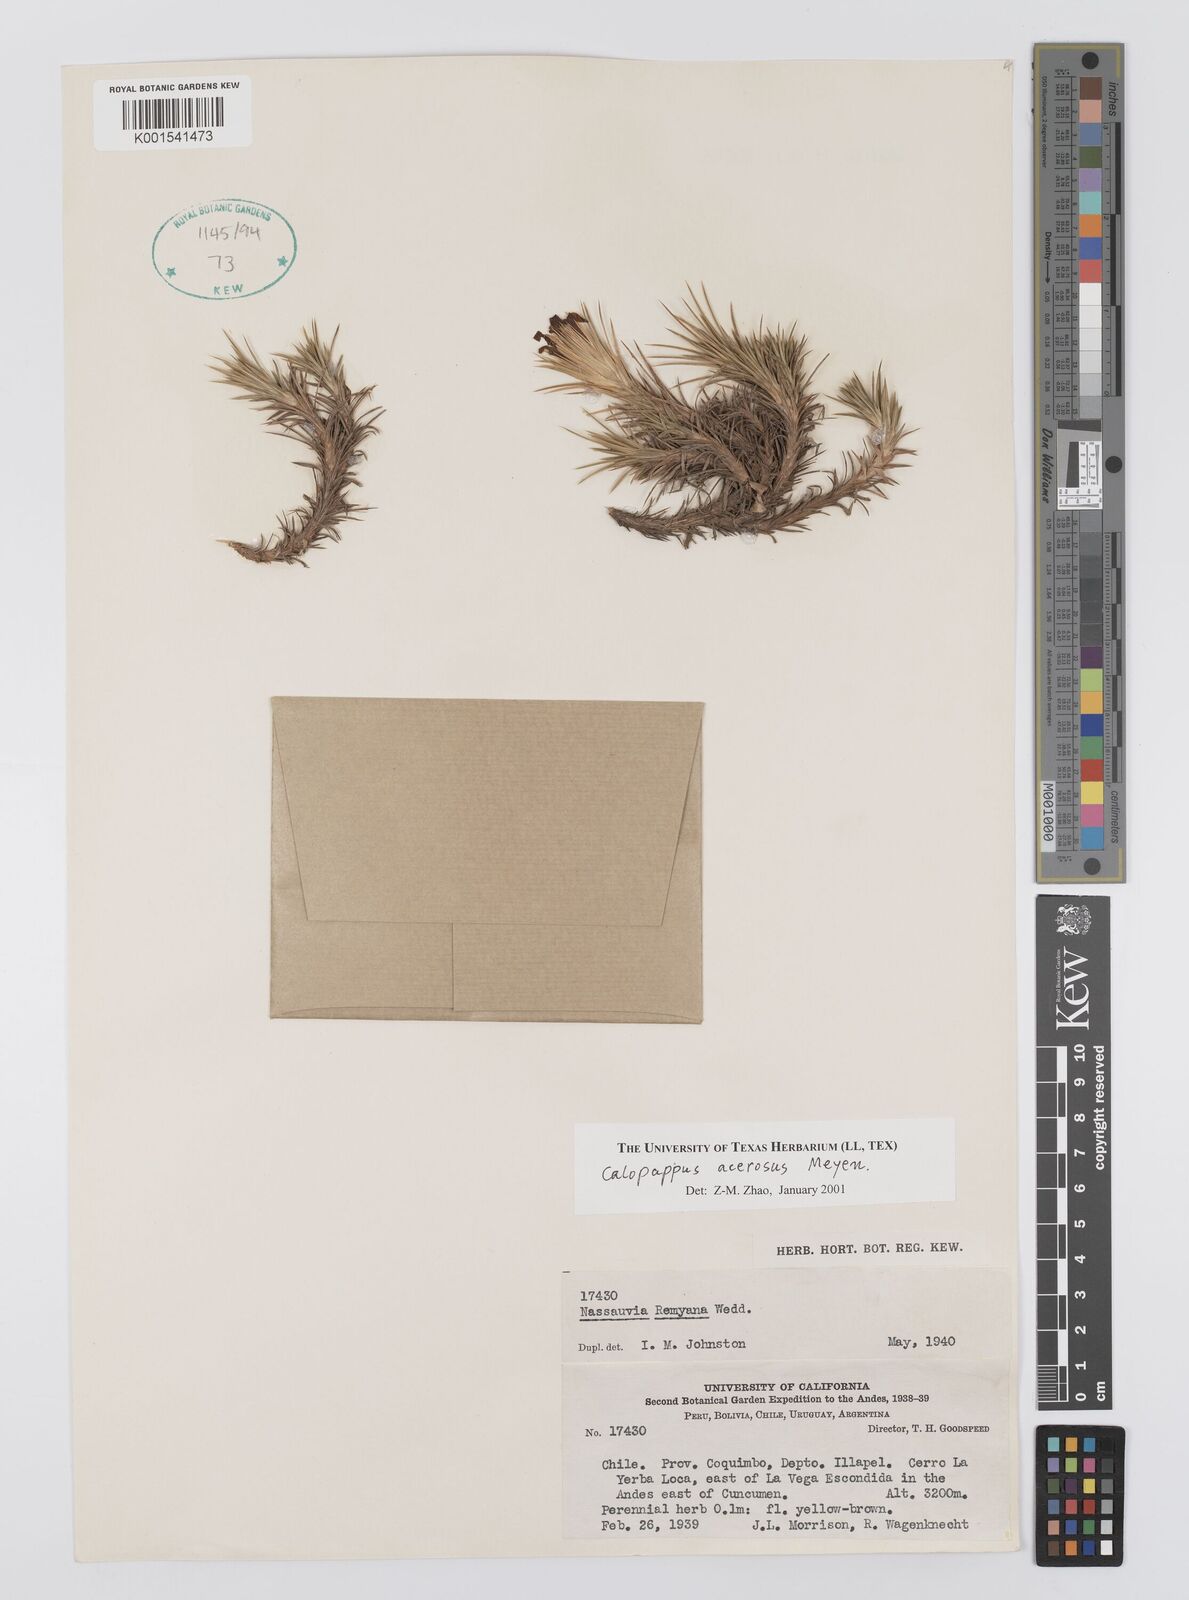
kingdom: Plantae
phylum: Tracheophyta
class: Magnoliopsida
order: Asterales
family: Asteraceae
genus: Nassauvia
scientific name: Nassauvia acerosa
